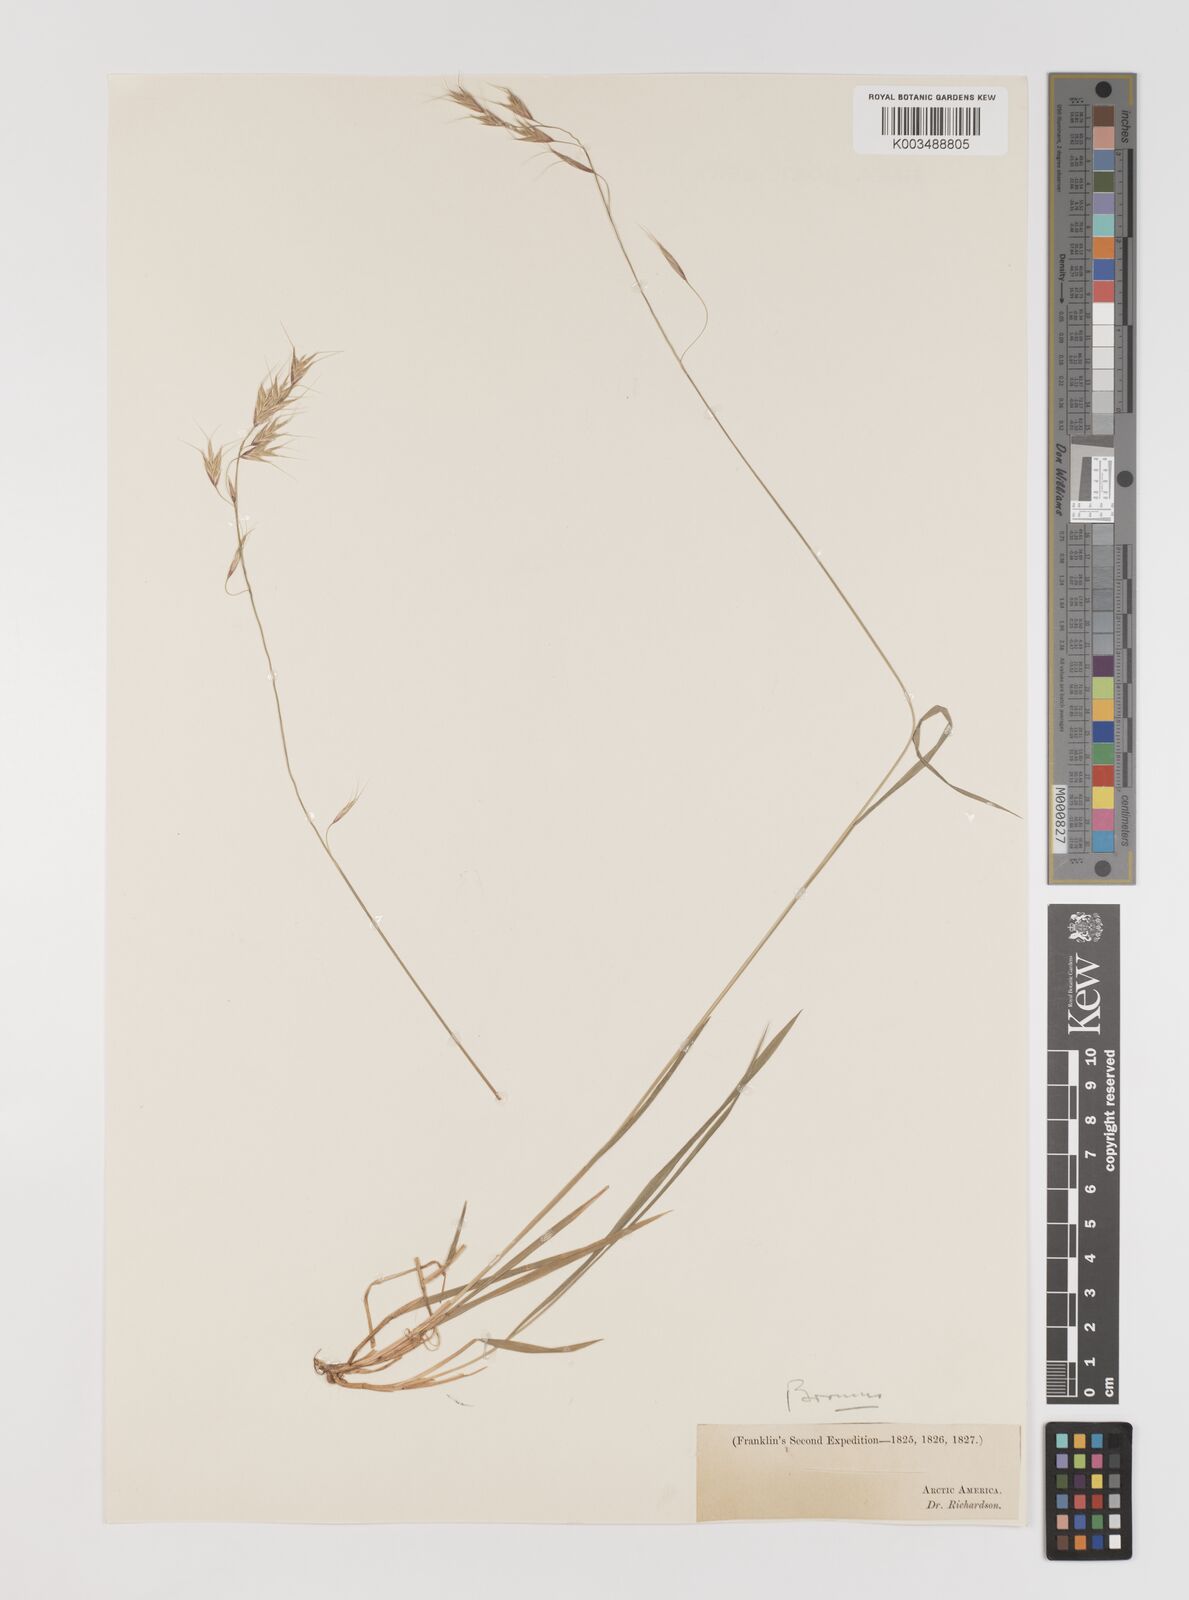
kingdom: Plantae
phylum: Tracheophyta
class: Liliopsida
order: Poales
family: Poaceae
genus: Bromus
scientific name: Bromus
